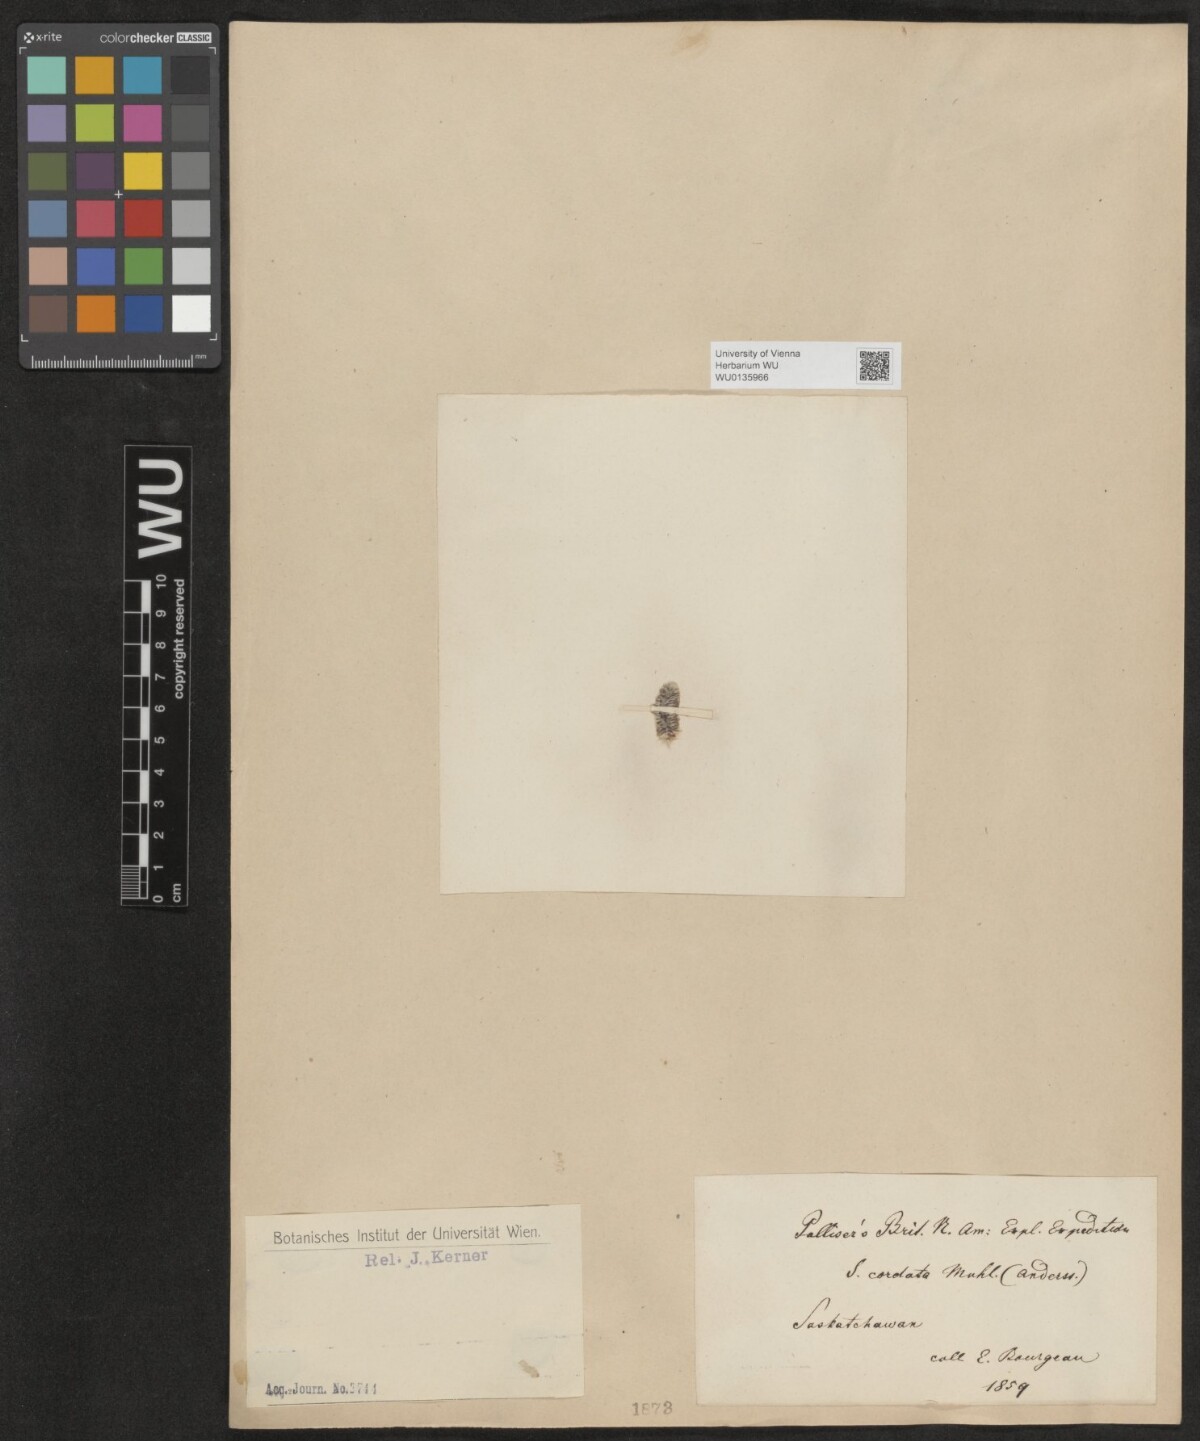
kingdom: Plantae
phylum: Tracheophyta
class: Magnoliopsida
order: Malpighiales
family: Salicaceae
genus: Salix
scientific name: Salix cordata
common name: Heart-leaf willow
